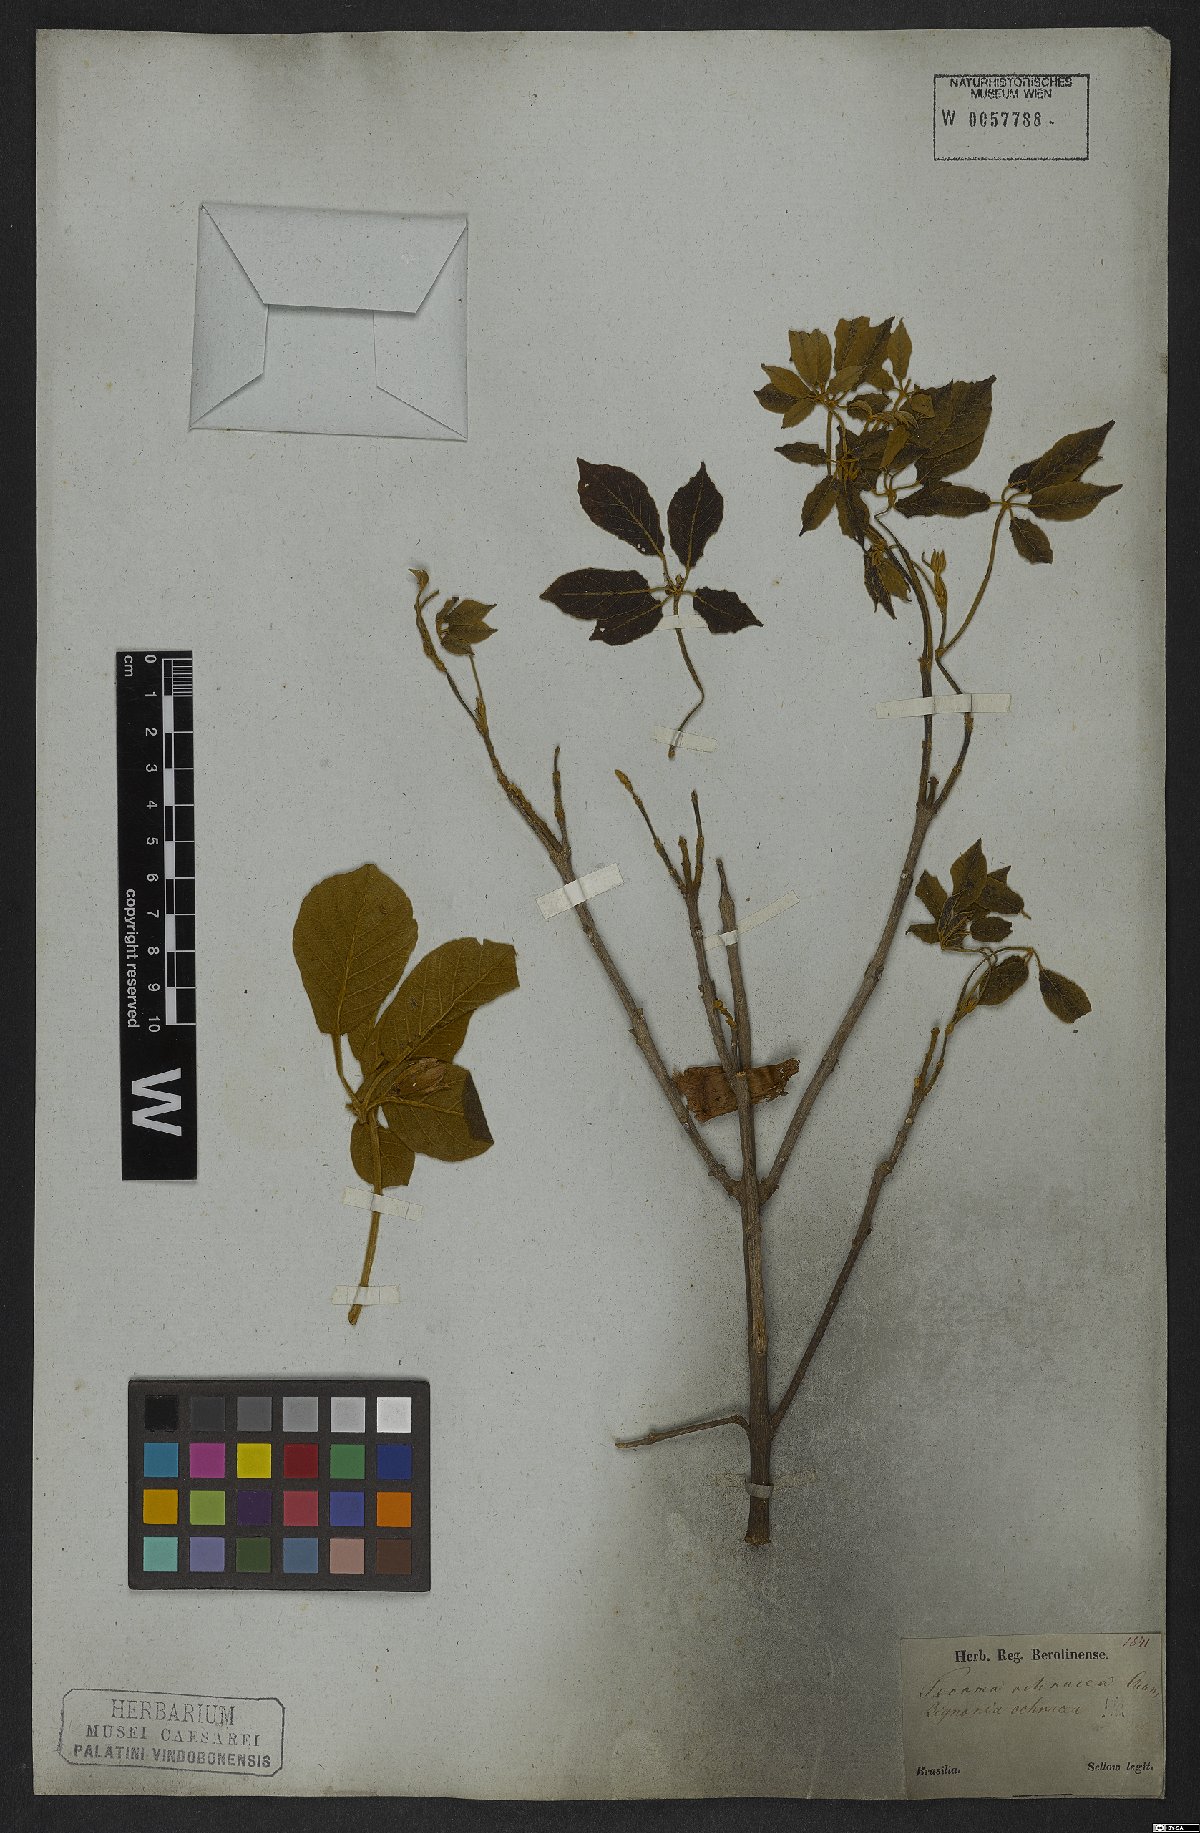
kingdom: Plantae
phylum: Tracheophyta
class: Magnoliopsida
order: Lamiales
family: Bignoniaceae
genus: Handroanthus
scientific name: Handroanthus ochraceus
